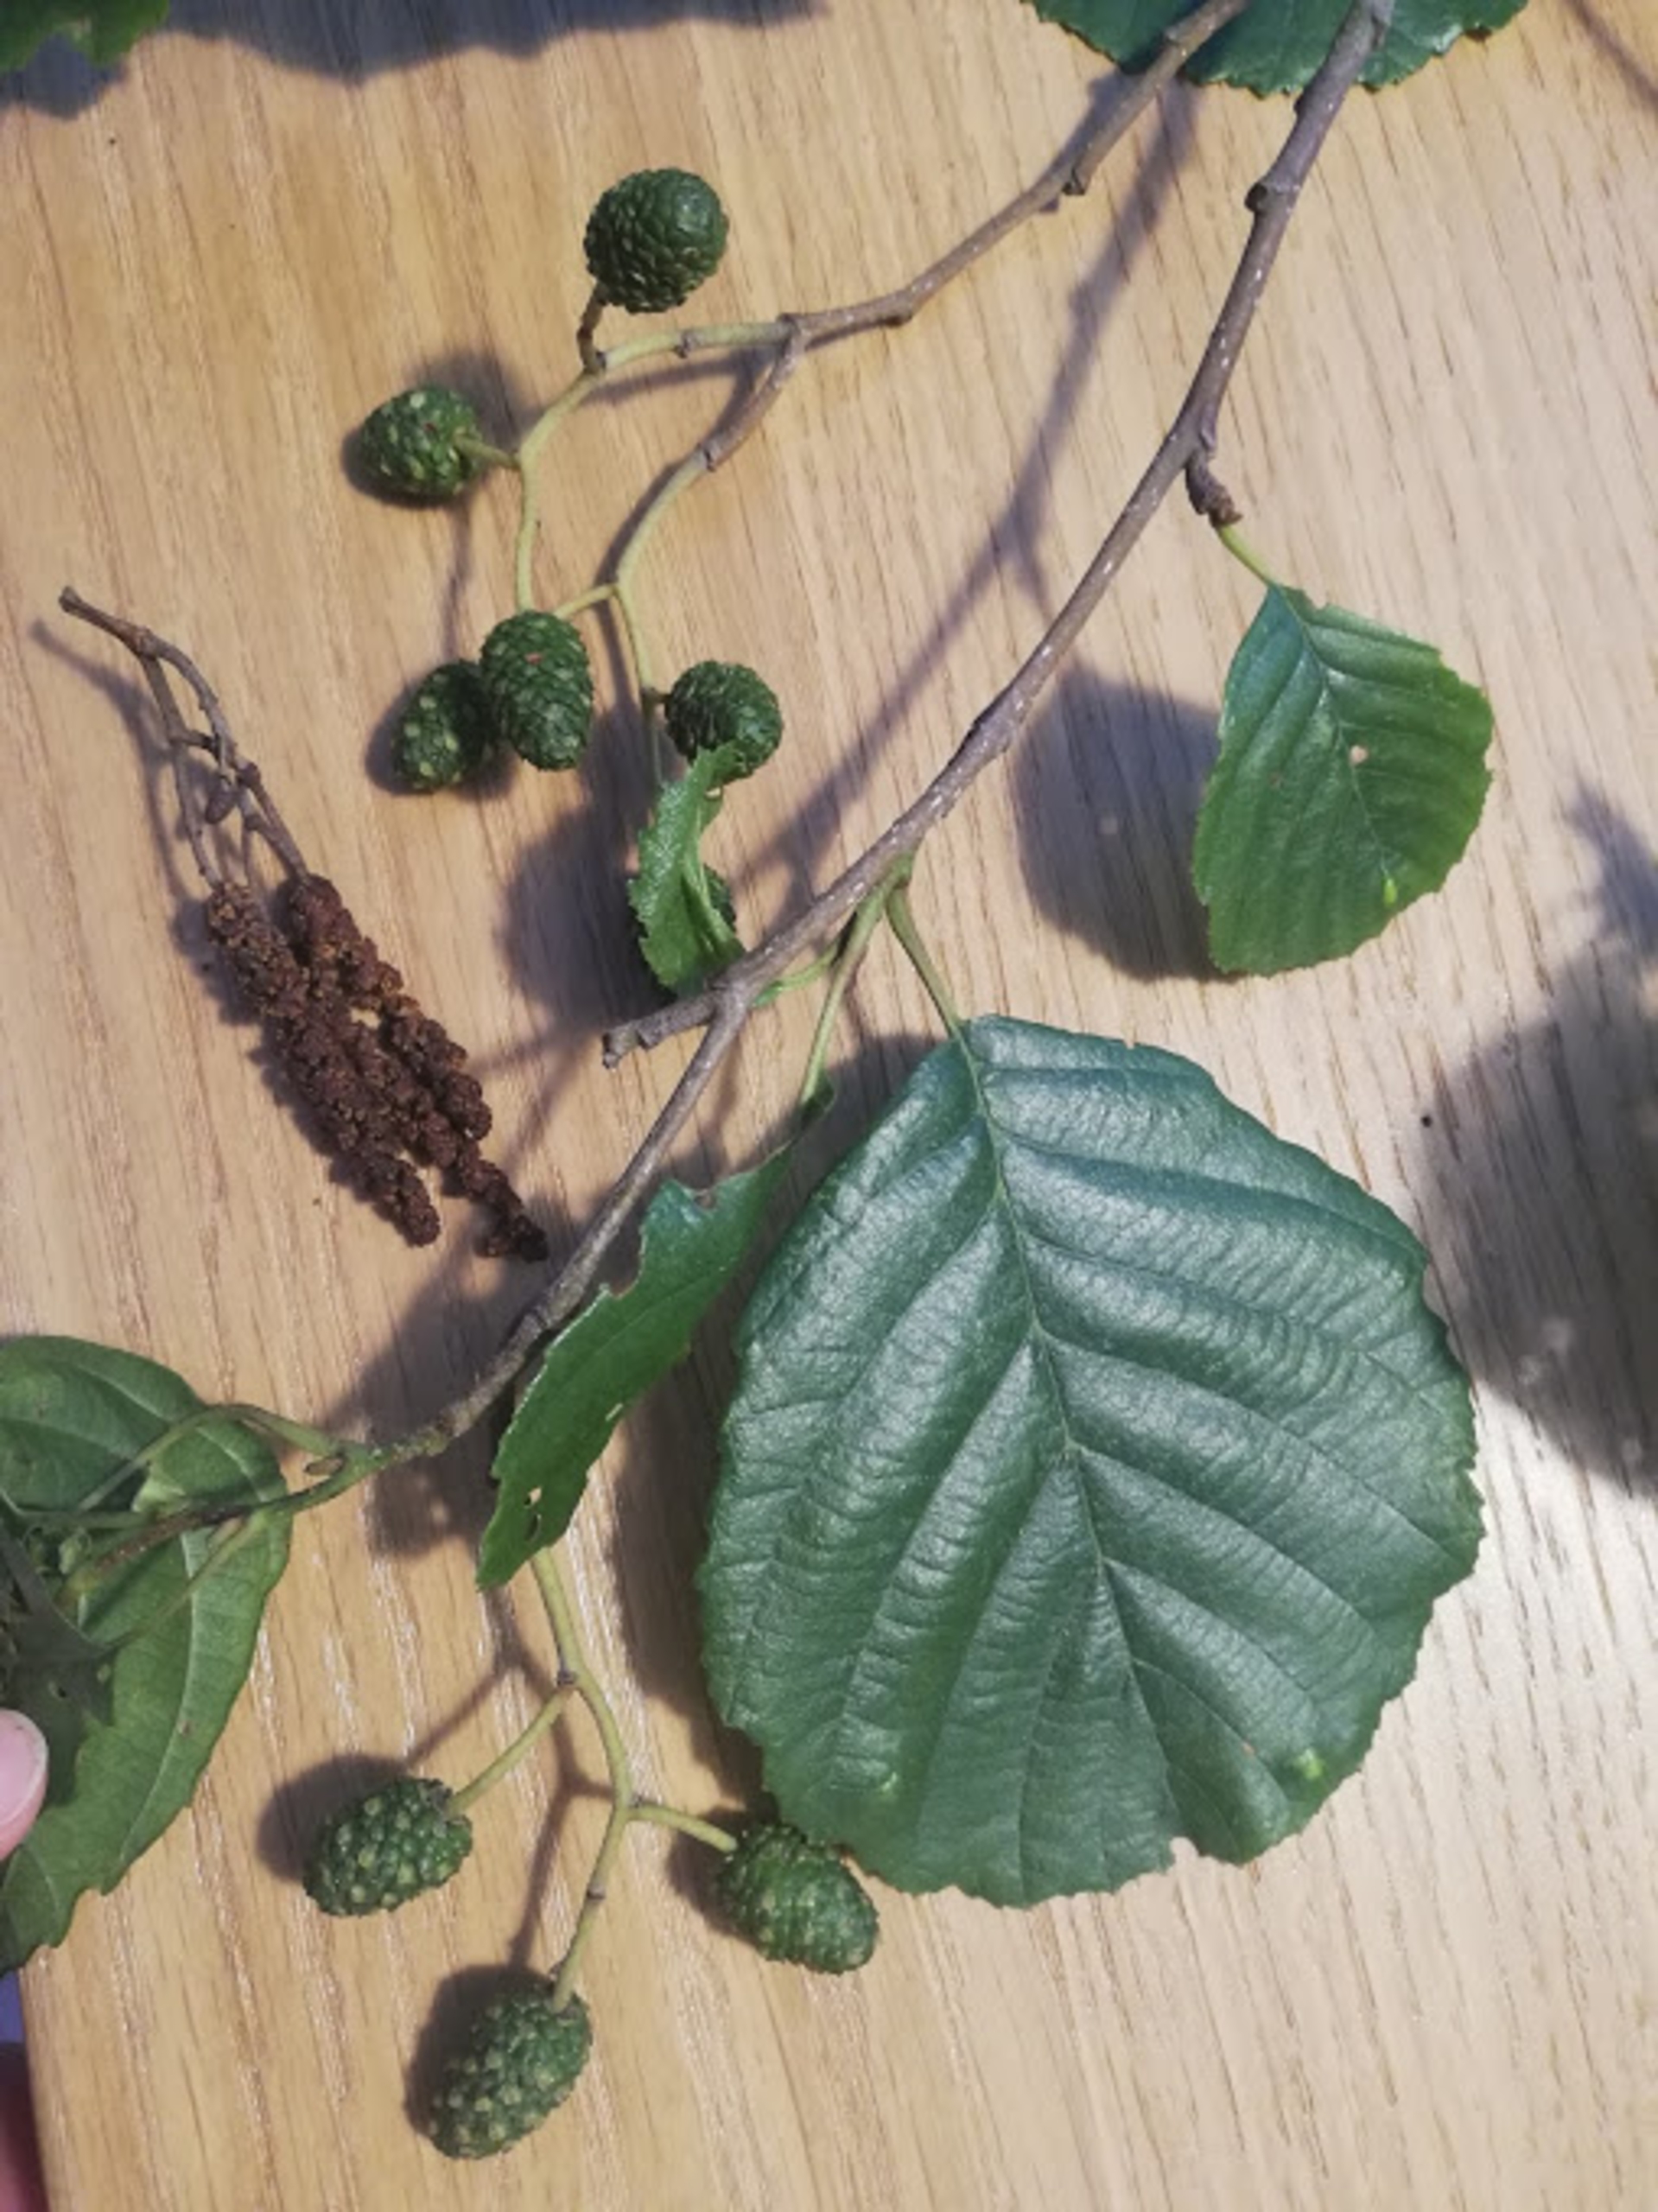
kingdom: Plantae
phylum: Tracheophyta
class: Magnoliopsida
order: Fagales
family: Betulaceae
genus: Alnus
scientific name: Alnus glutinosa
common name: Rød-el
